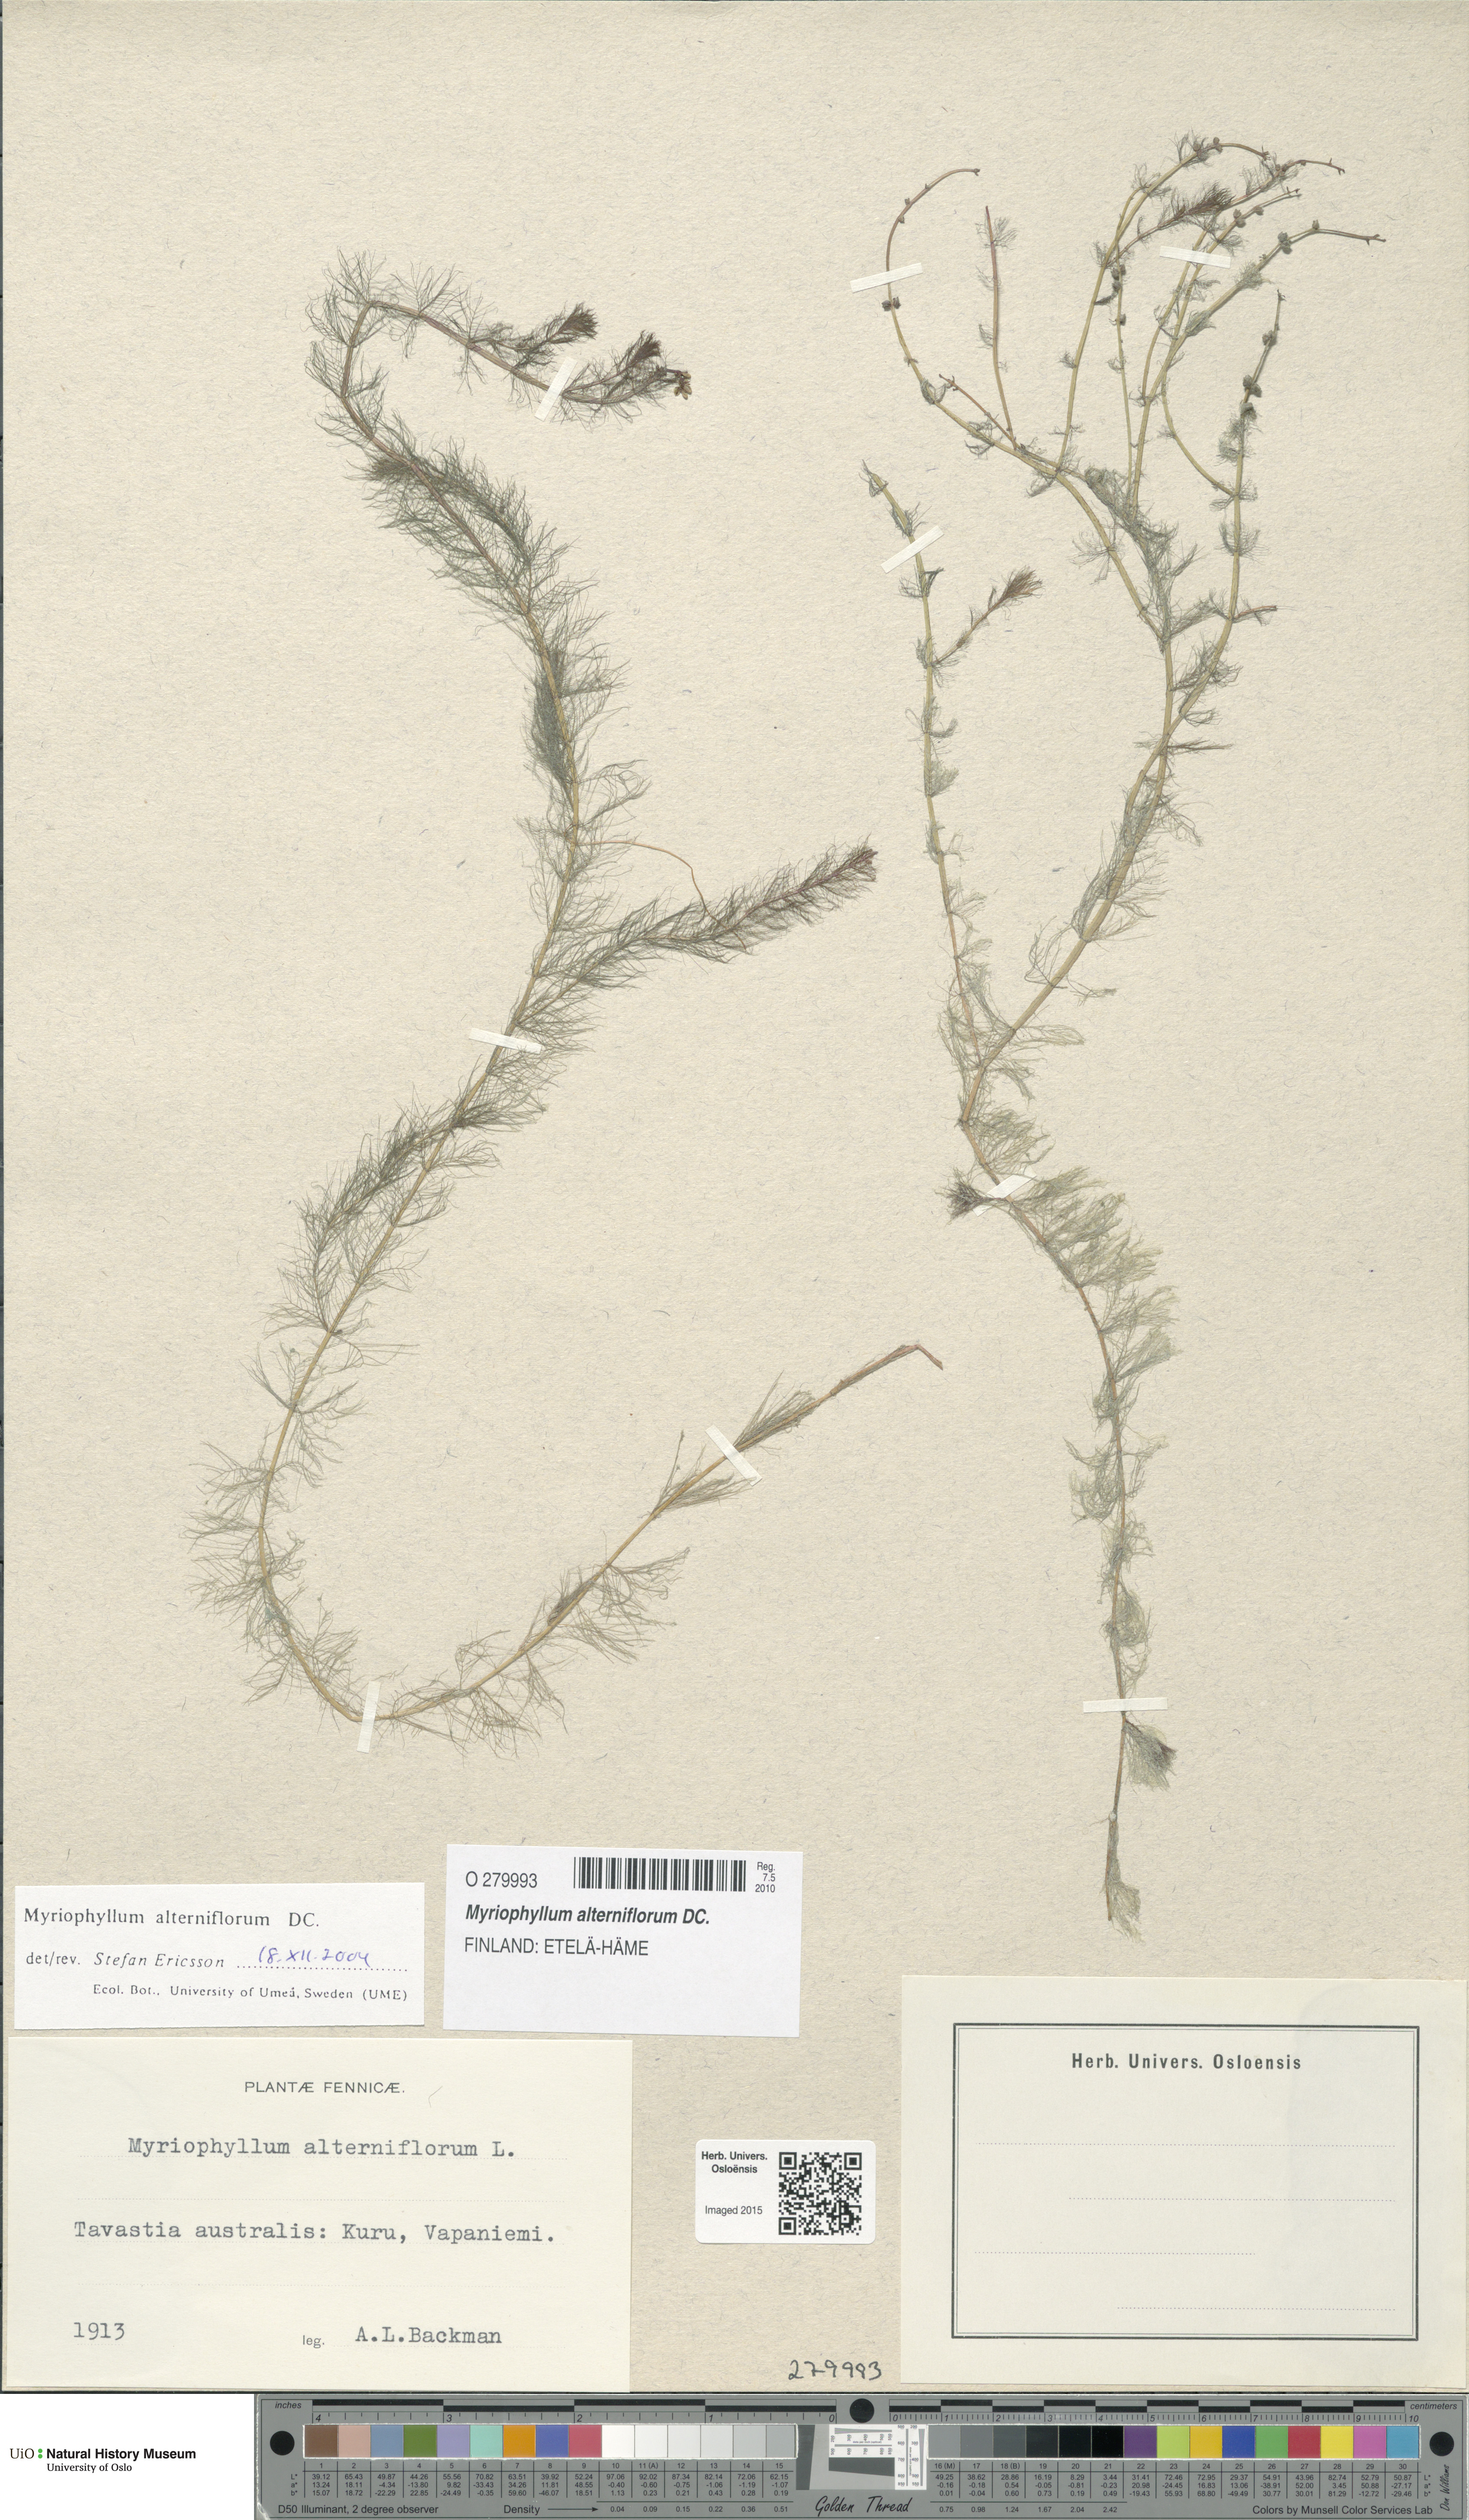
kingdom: Plantae
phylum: Tracheophyta
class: Magnoliopsida
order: Saxifragales
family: Haloragaceae
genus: Myriophyllum
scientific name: Myriophyllum alterniflorum
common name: Alternate water-milfoil
